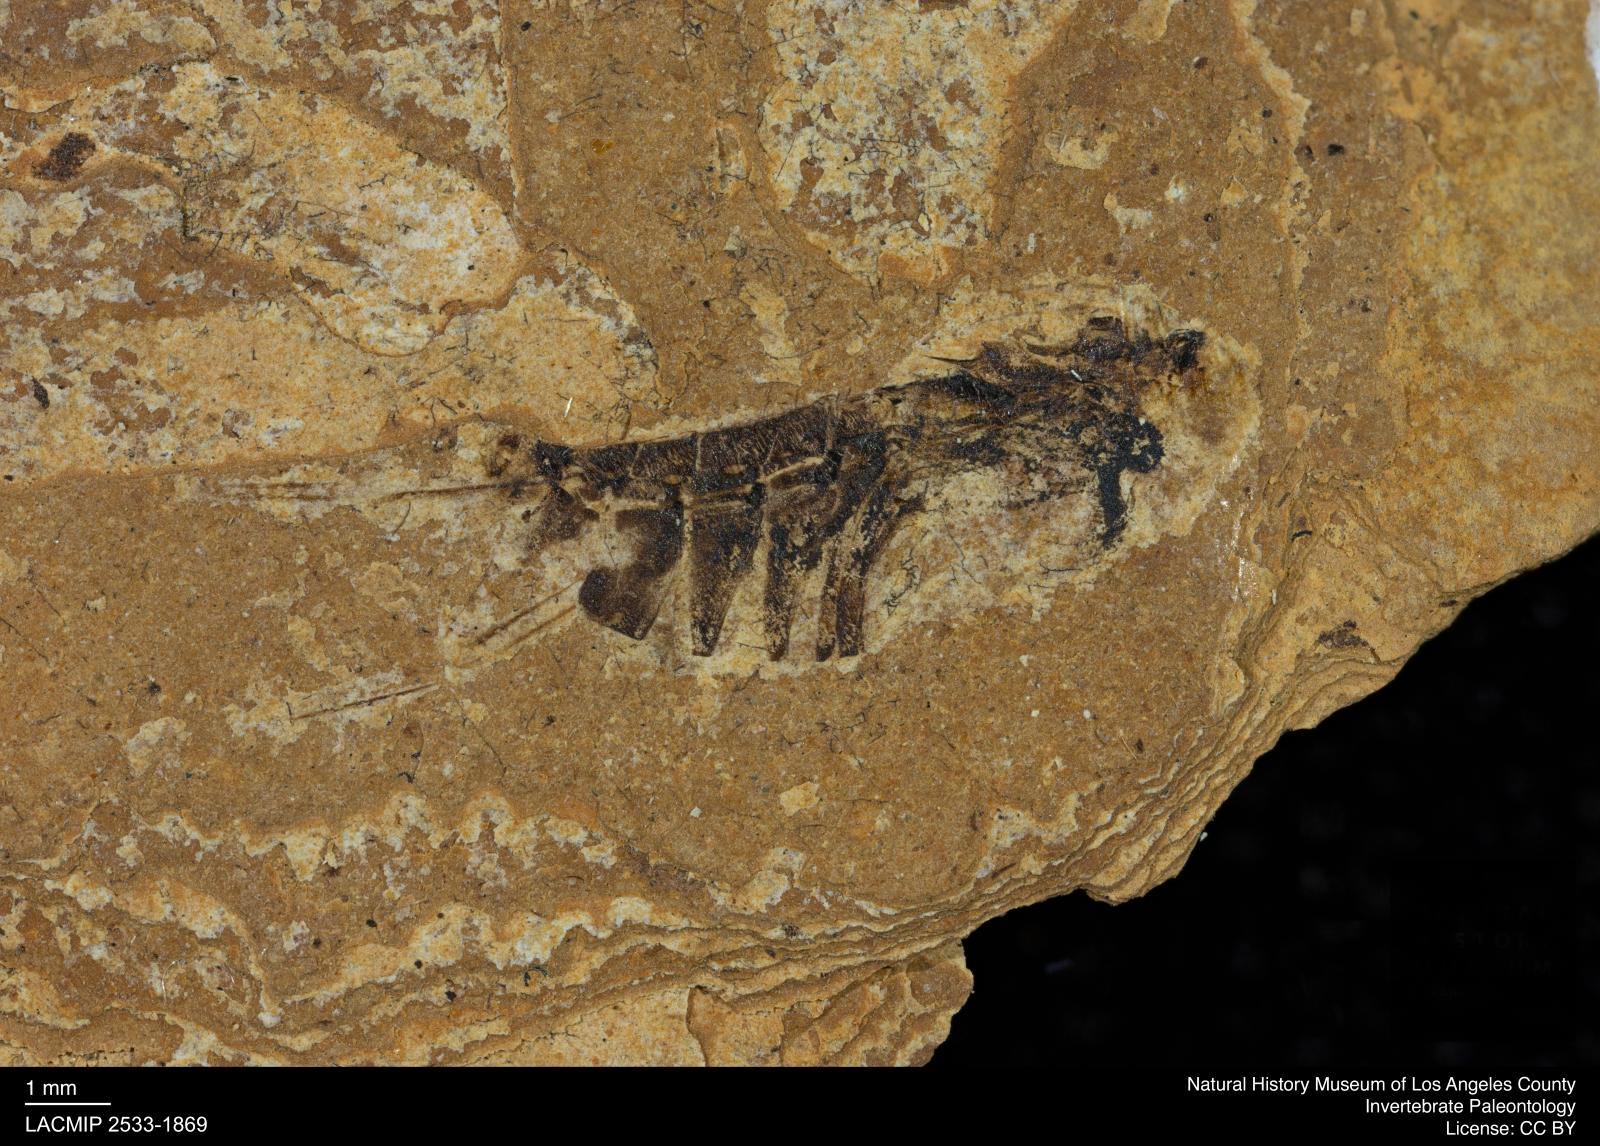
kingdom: Animalia
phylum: Arthropoda
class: Insecta
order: Hemiptera
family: Notonectidae
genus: Notonecta
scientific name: Notonecta
